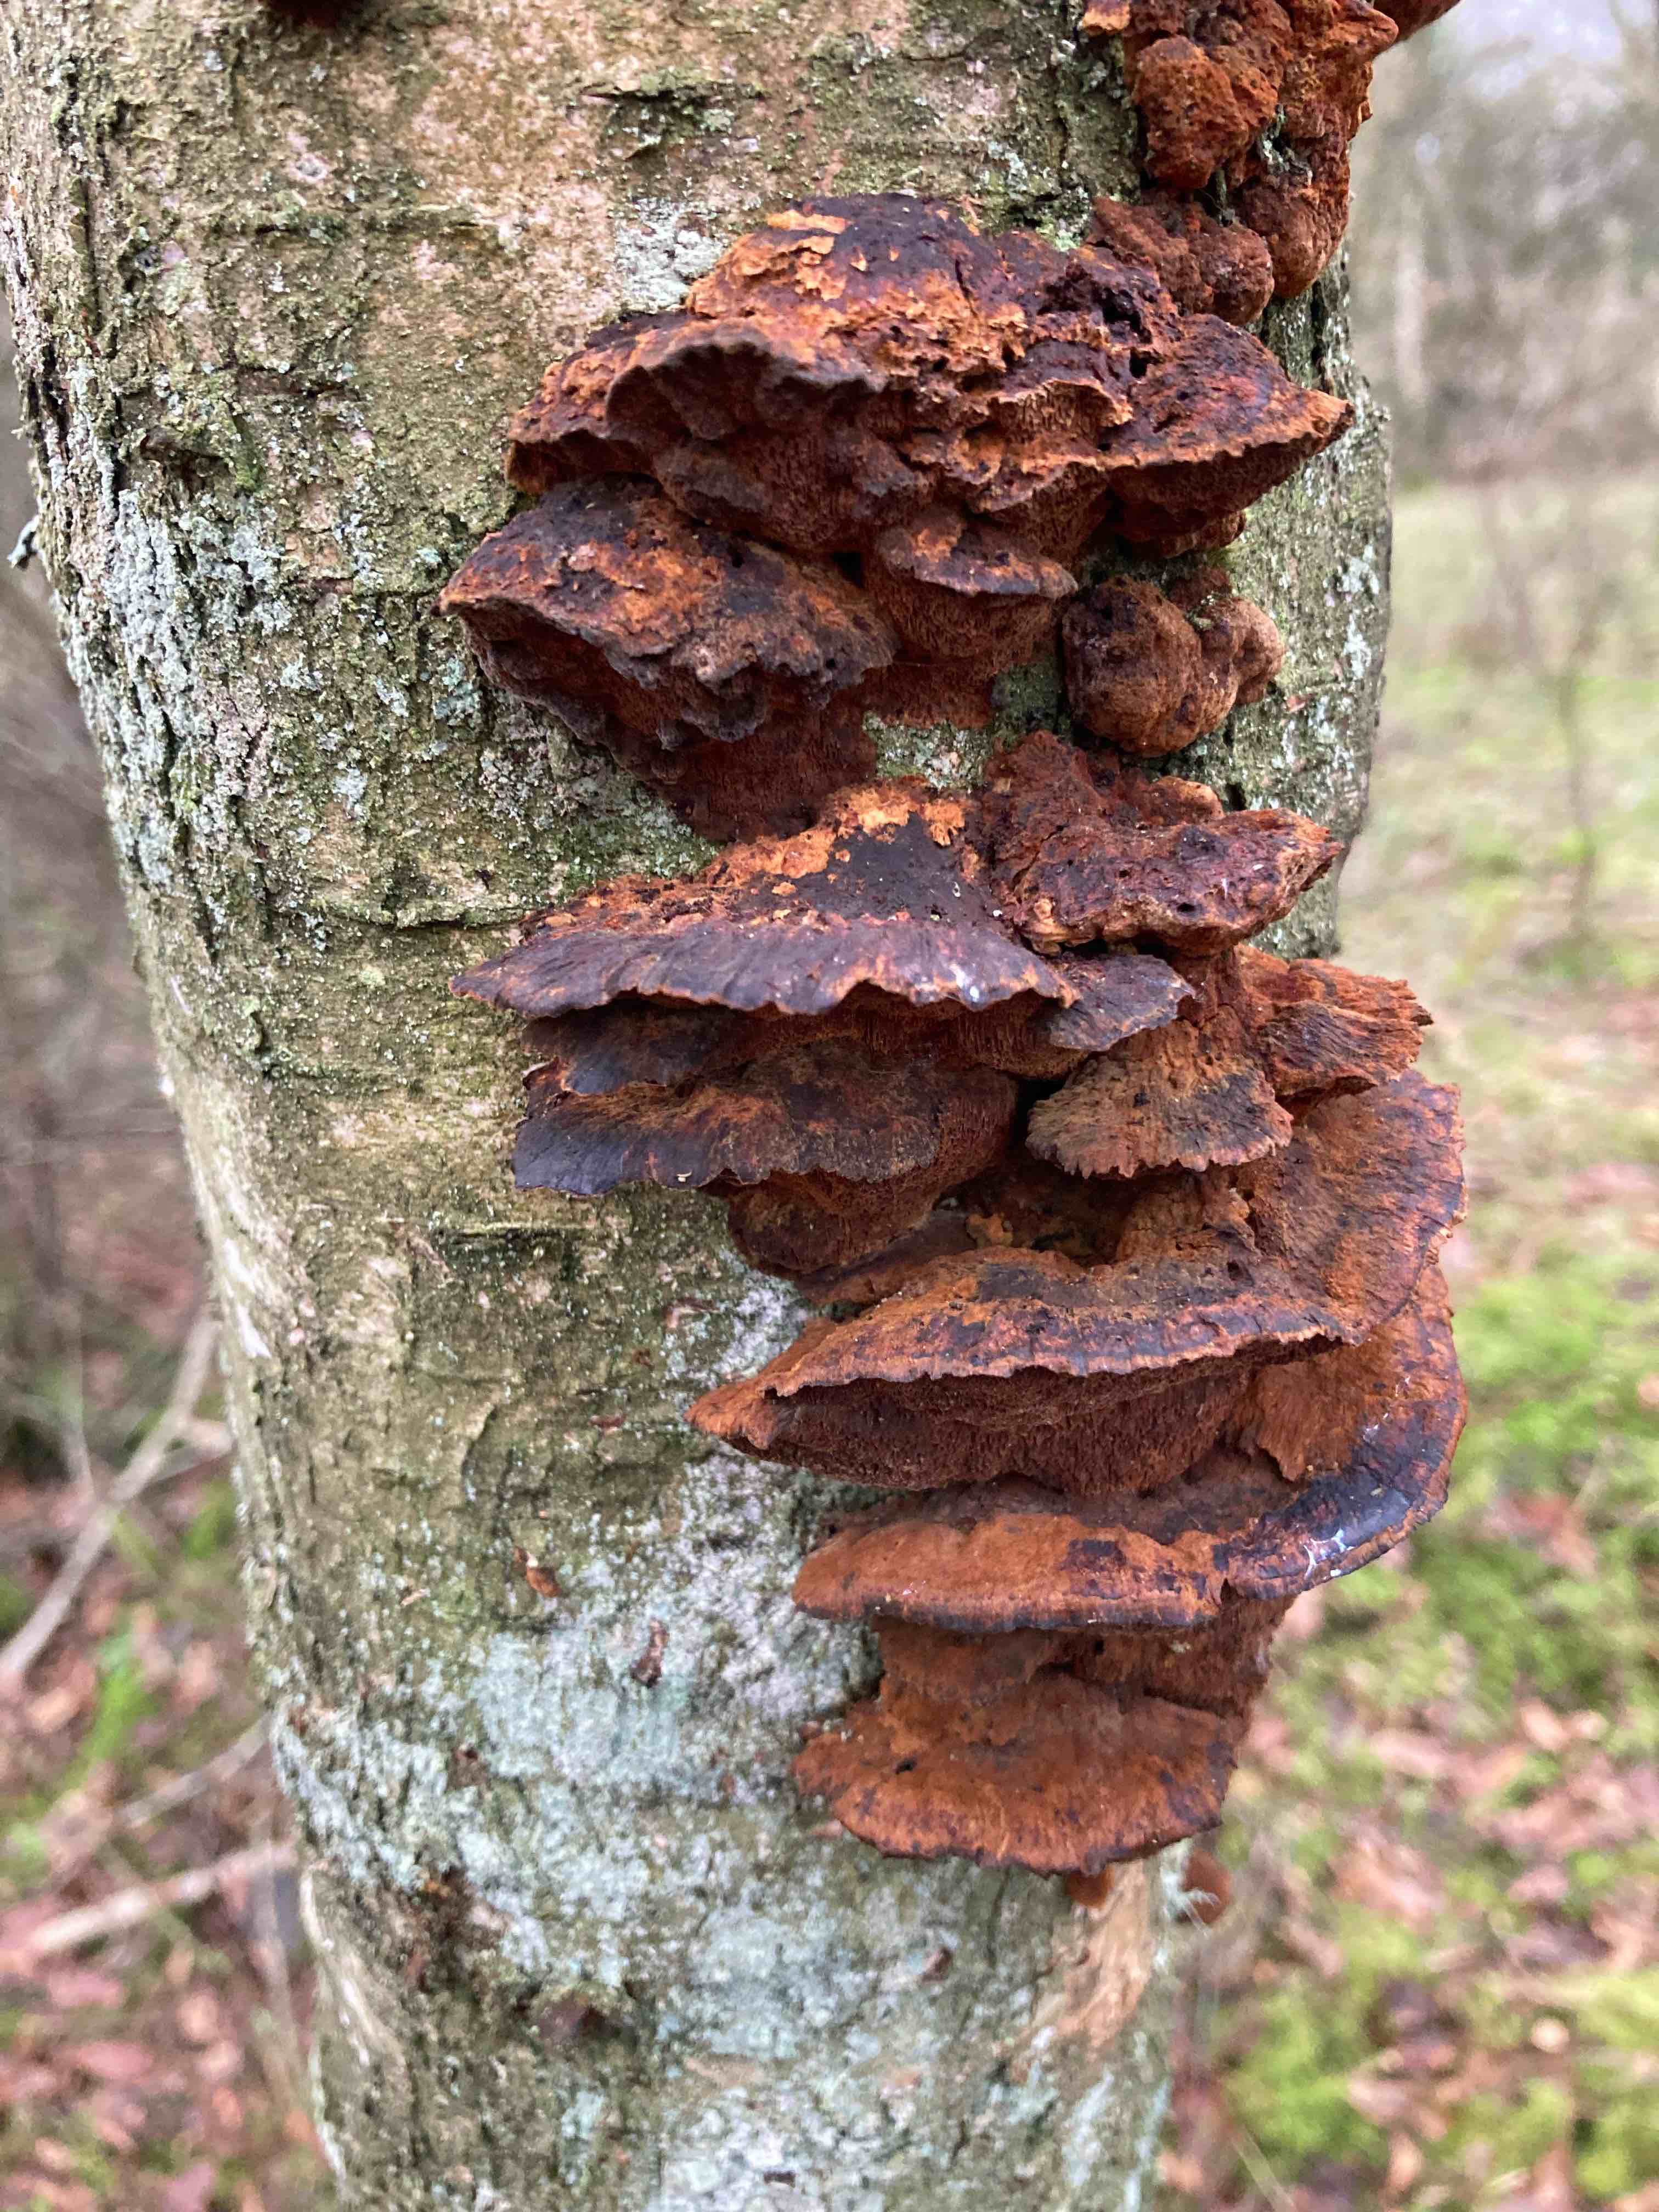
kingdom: Fungi
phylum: Basidiomycota
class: Agaricomycetes
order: Hymenochaetales
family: Hymenochaetaceae
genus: Xanthoporia
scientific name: Xanthoporia radiata
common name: elle-spejlporesvamp
